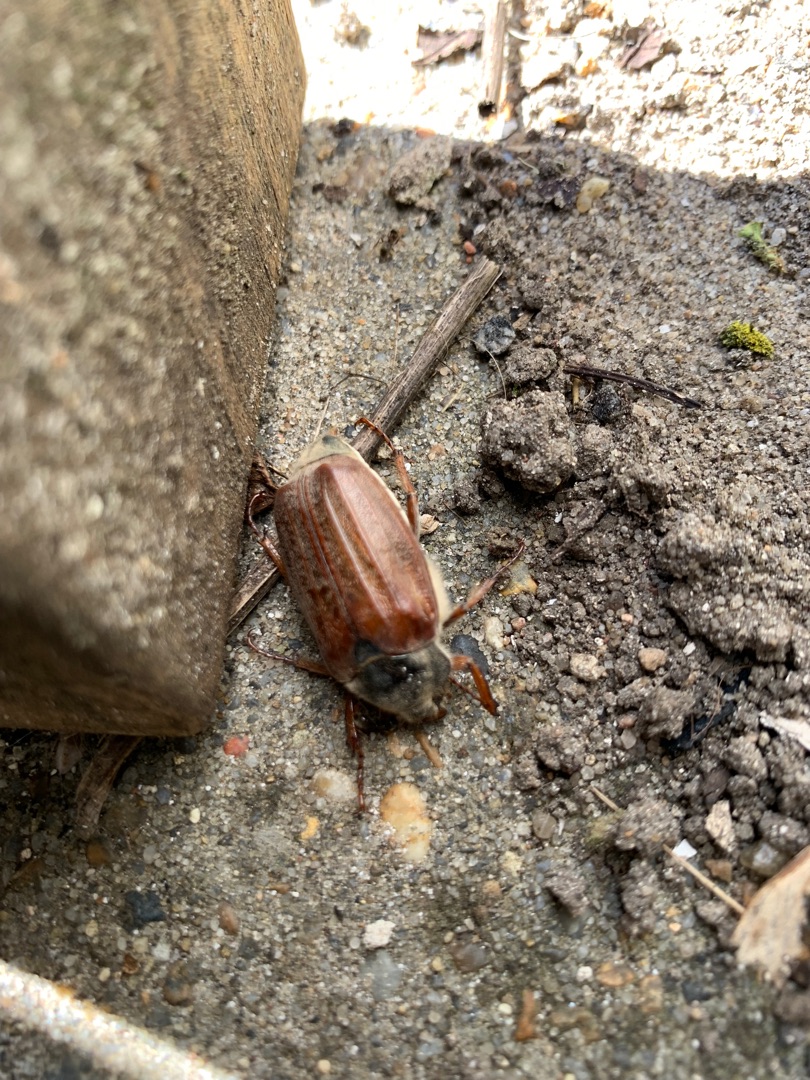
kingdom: Animalia
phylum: Arthropoda
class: Insecta
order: Coleoptera
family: Scarabaeidae
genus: Melolontha
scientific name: Melolontha melolontha
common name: Almindelig oldenborre
